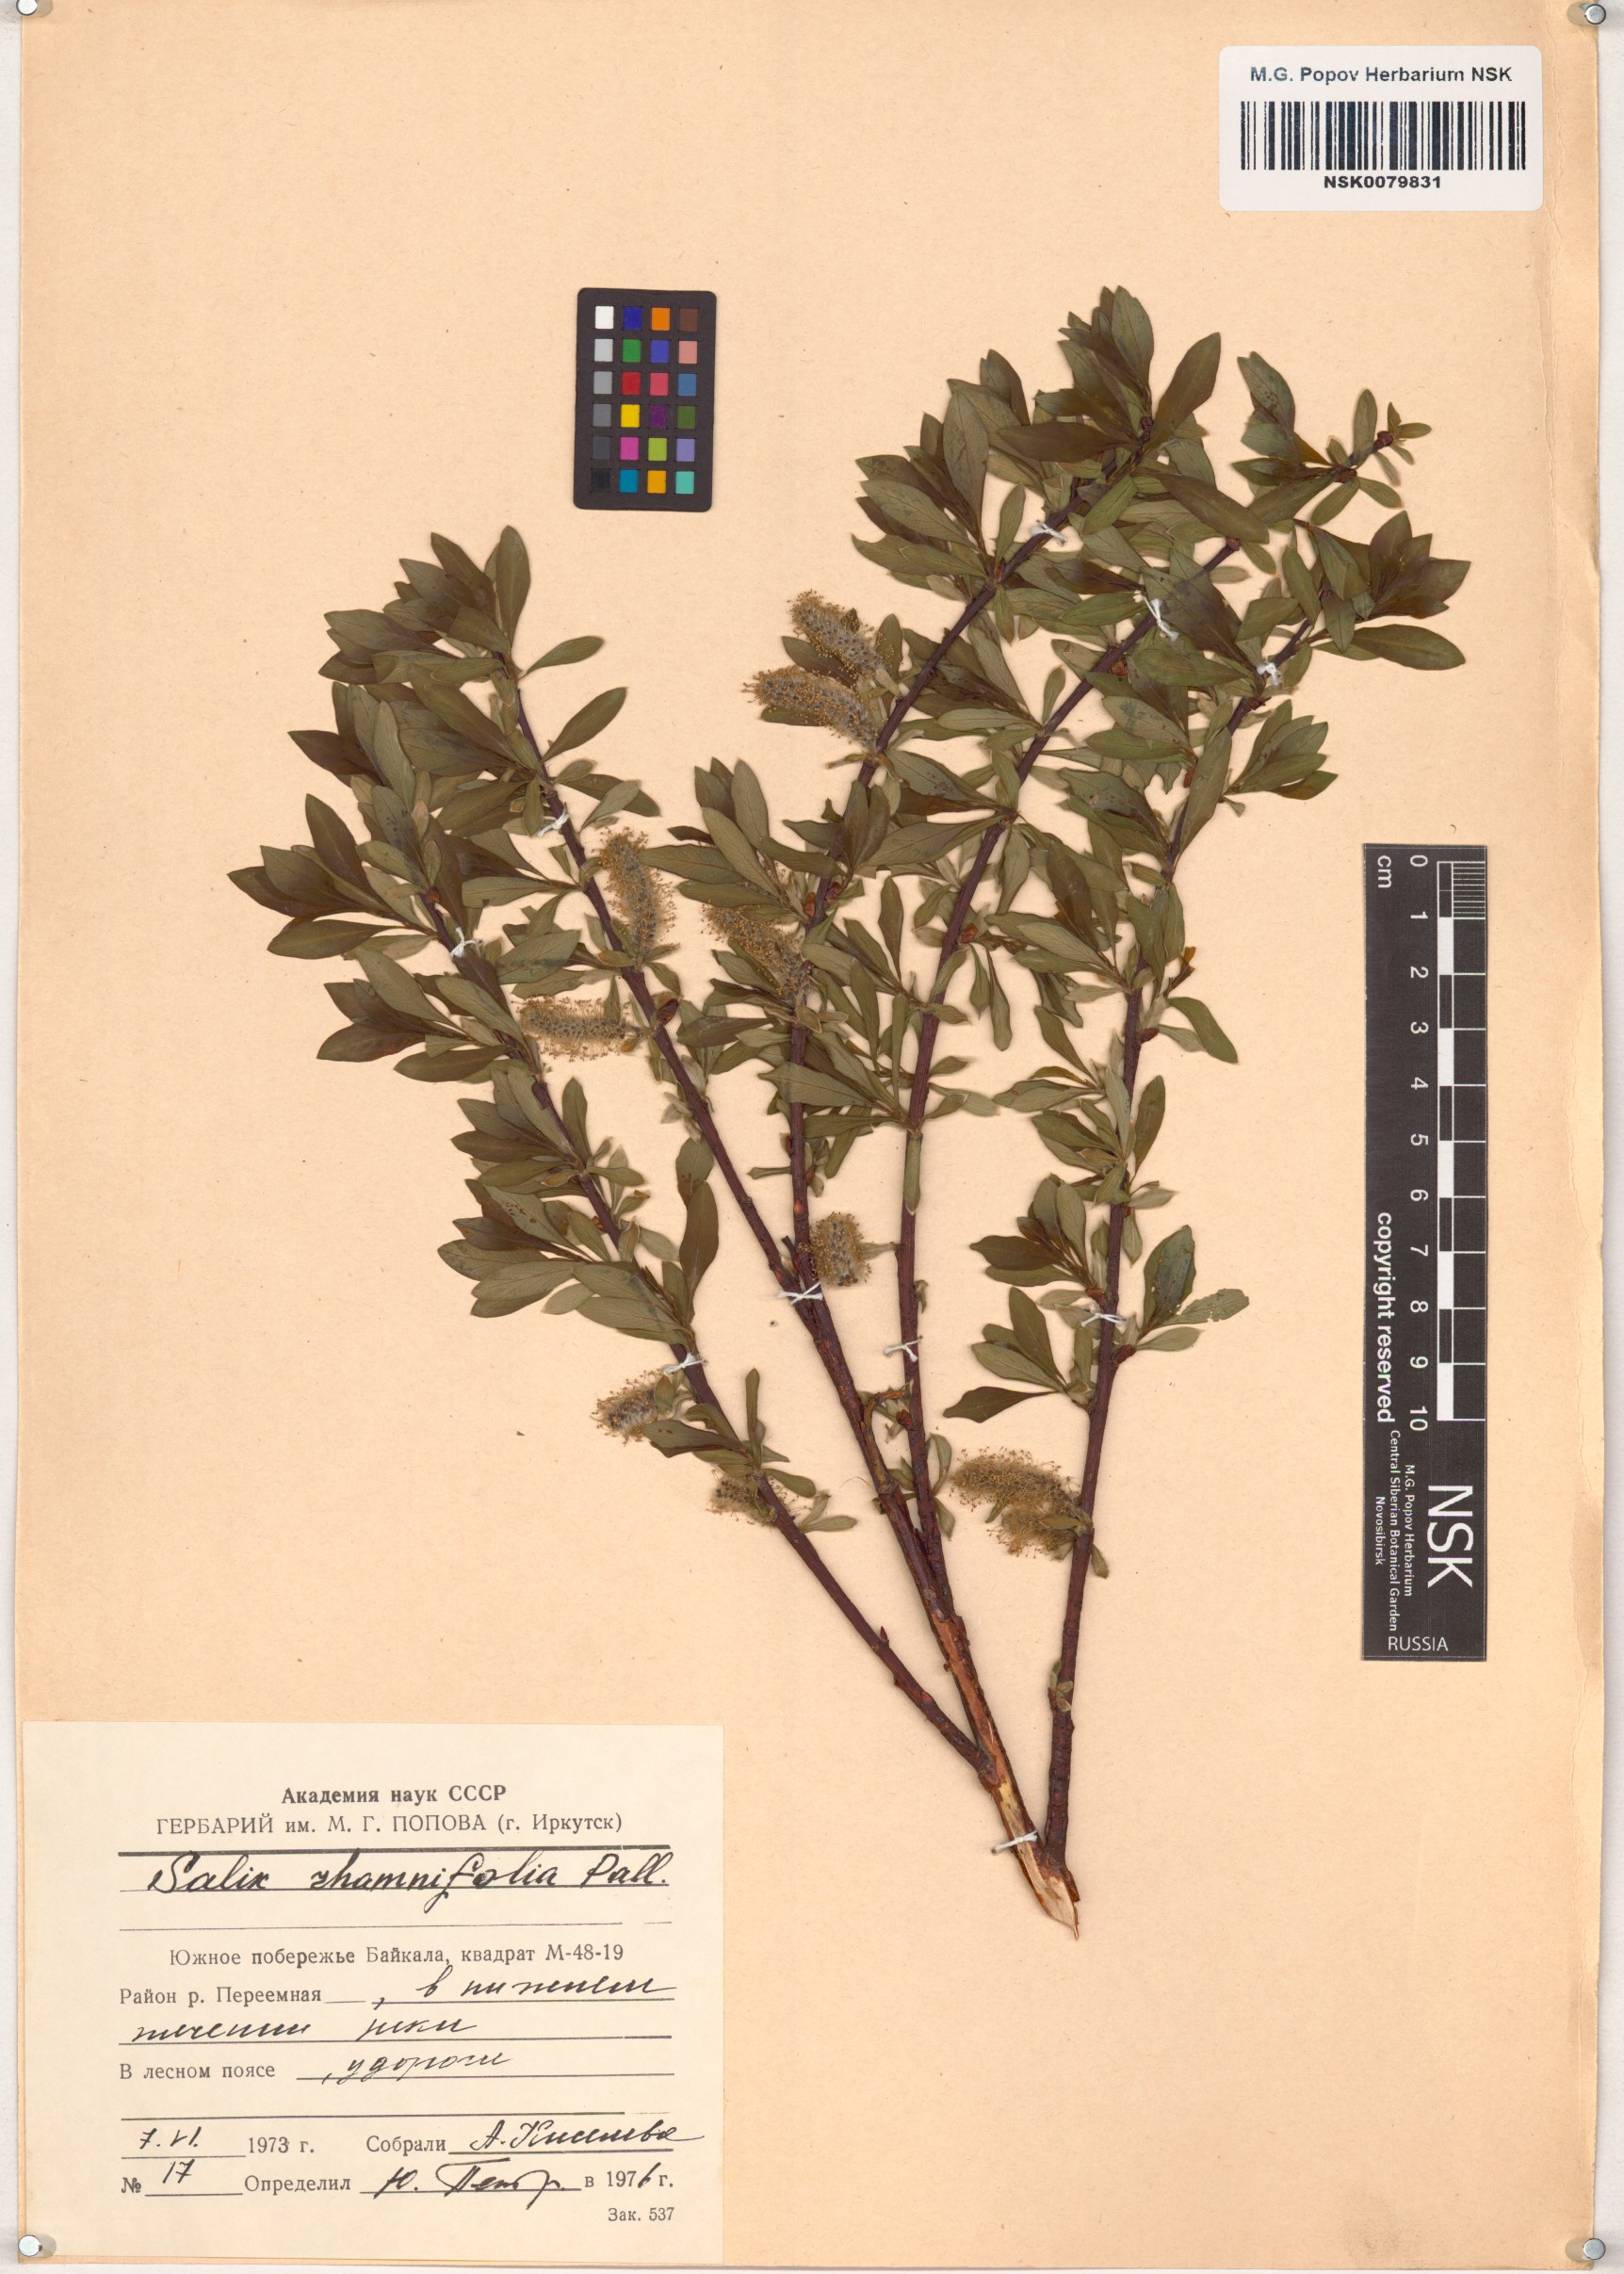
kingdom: Plantae
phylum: Tracheophyta
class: Magnoliopsida
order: Malpighiales
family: Salicaceae
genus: Salix
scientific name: Salix rhamnifolia
